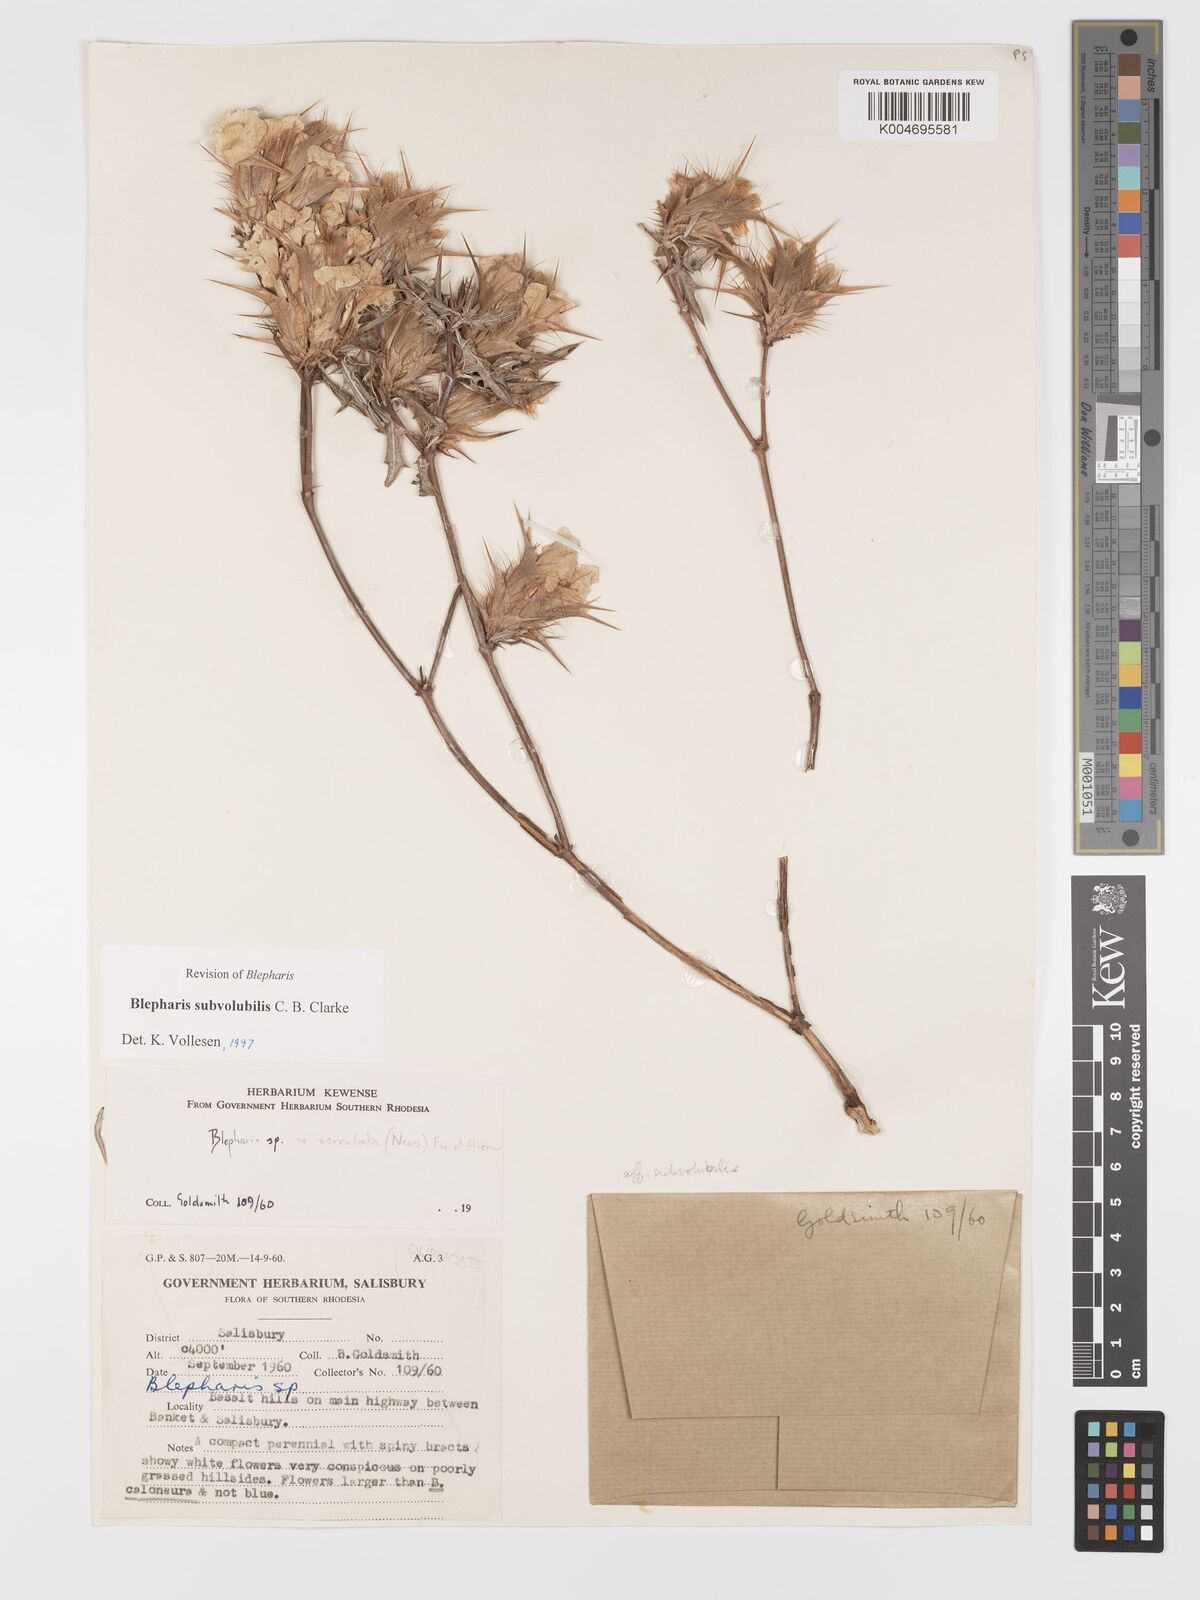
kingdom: Plantae
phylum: Tracheophyta
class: Magnoliopsida
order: Lamiales
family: Acanthaceae
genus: Blepharis
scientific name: Blepharis subvolubilis
